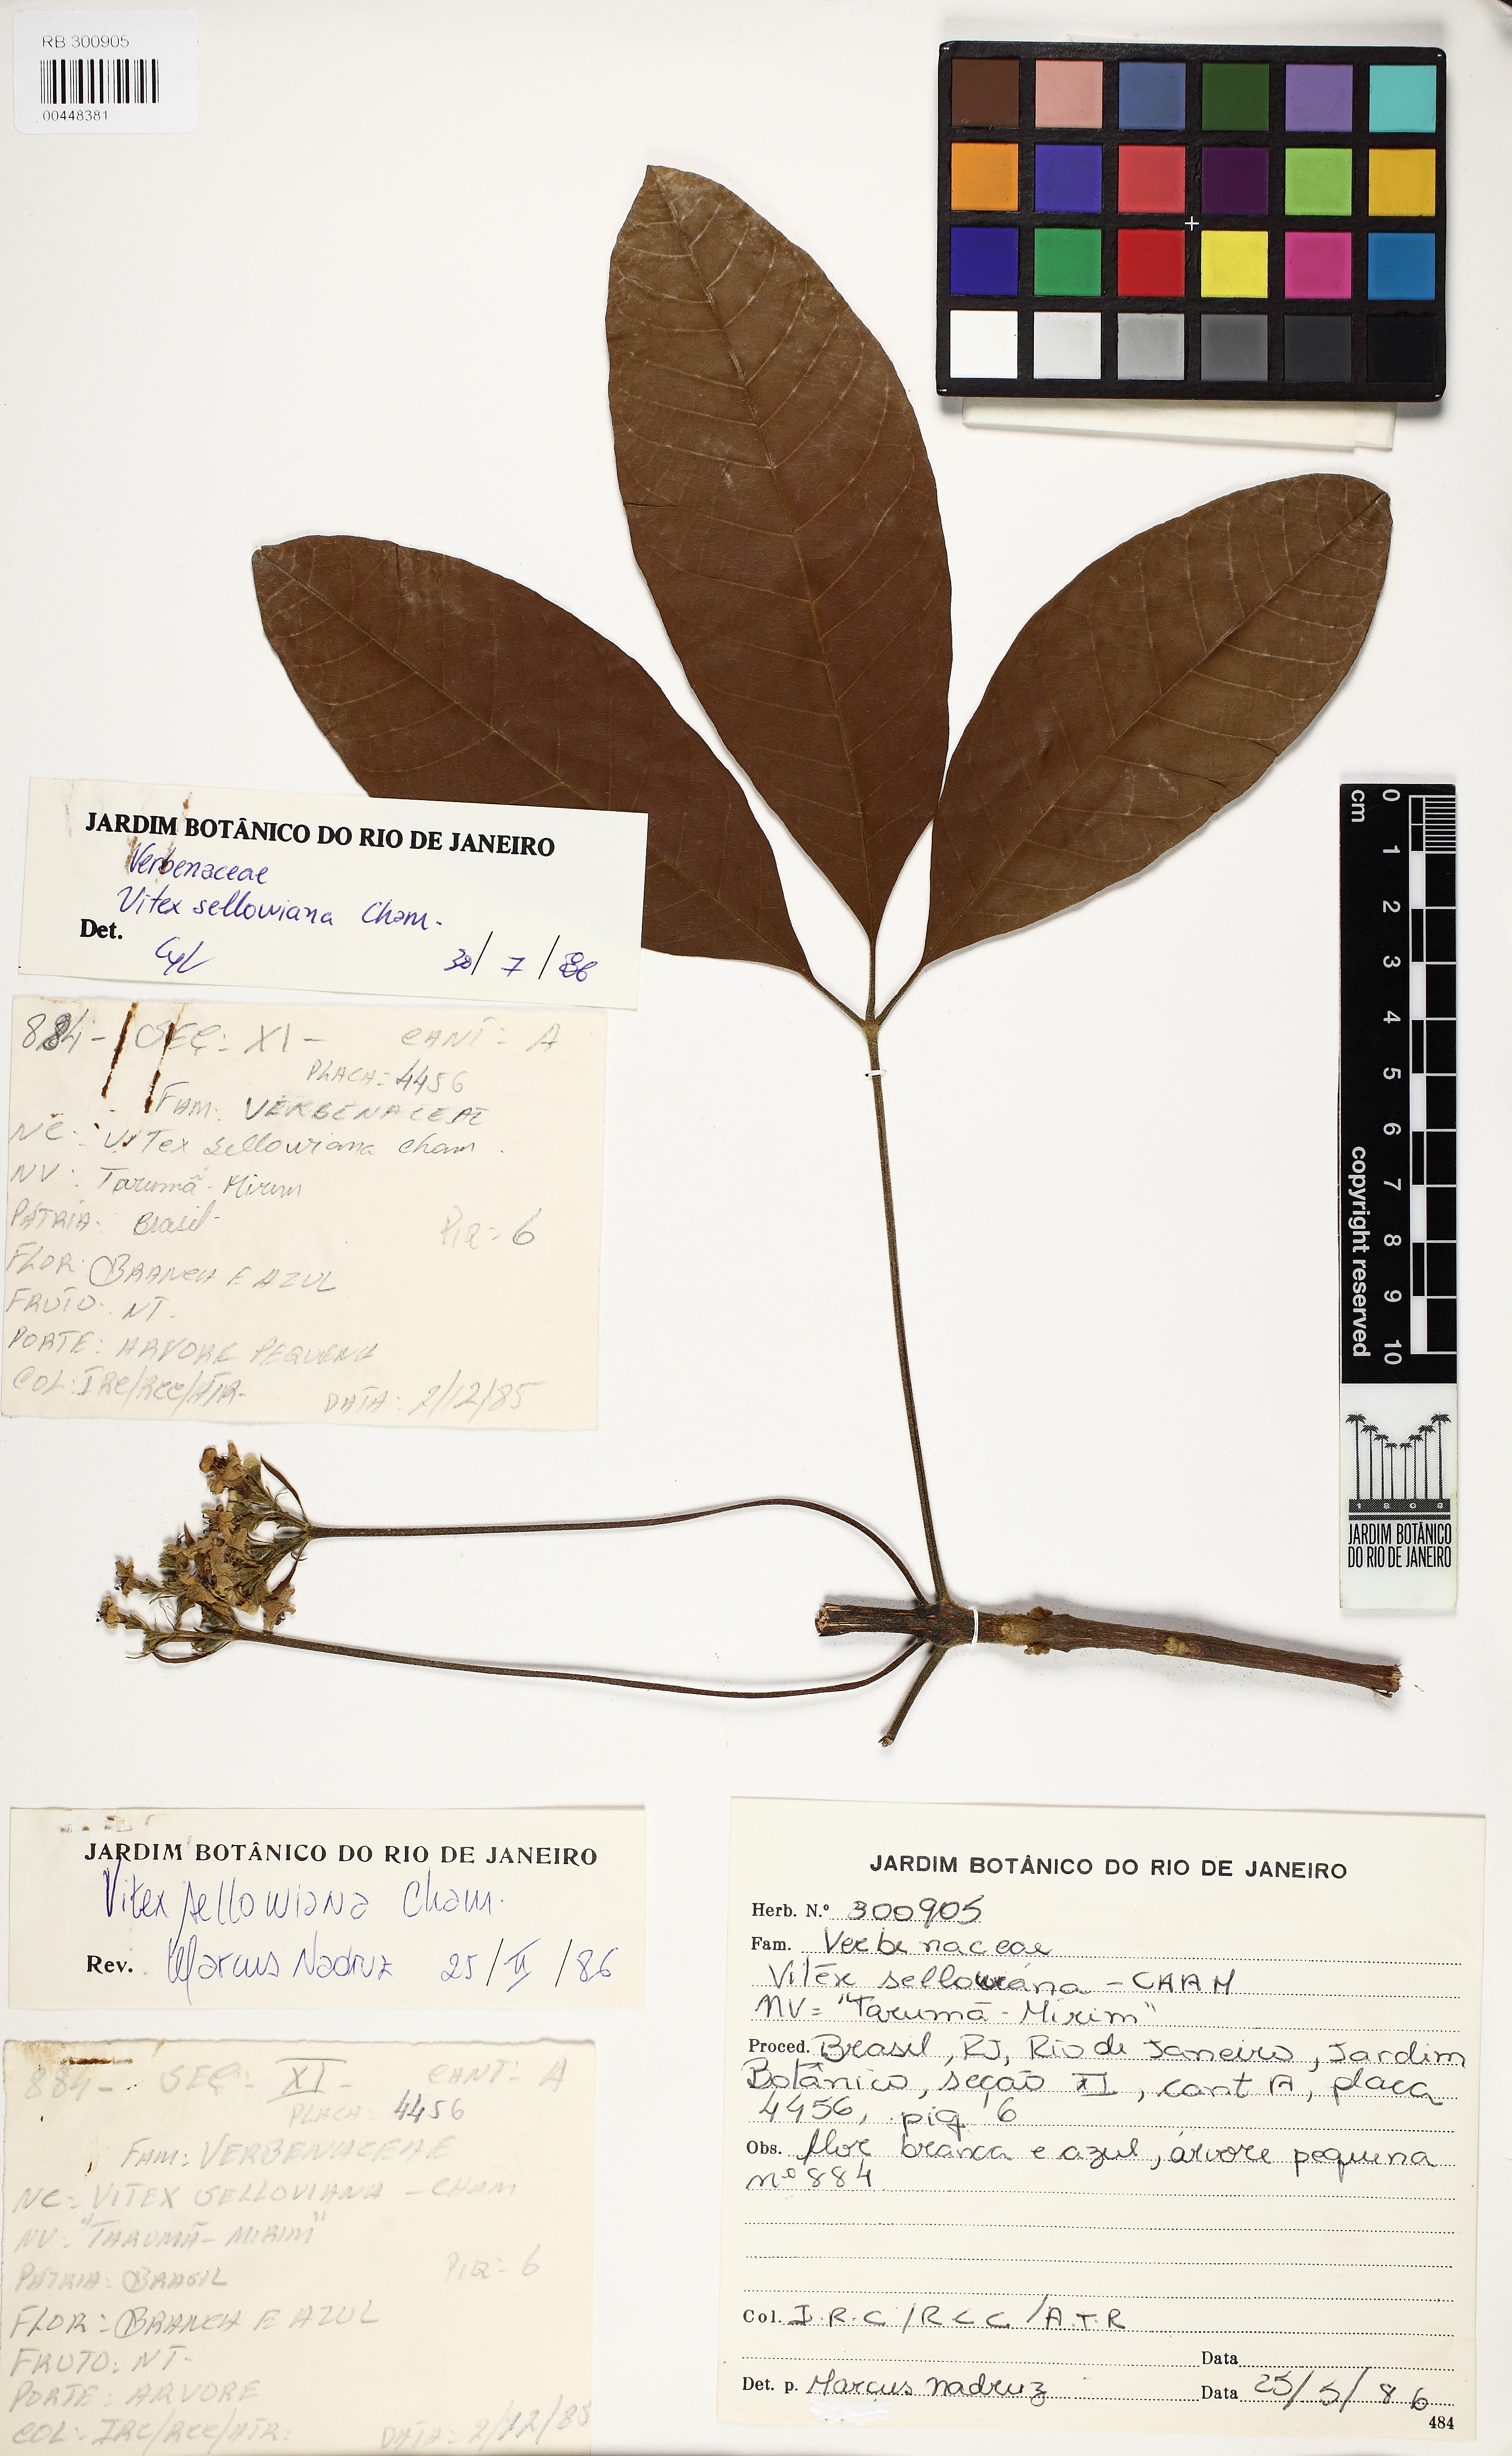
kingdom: Plantae
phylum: Tracheophyta
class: Magnoliopsida
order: Lamiales
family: Lamiaceae
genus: Vitex
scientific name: Vitex sellowiana
